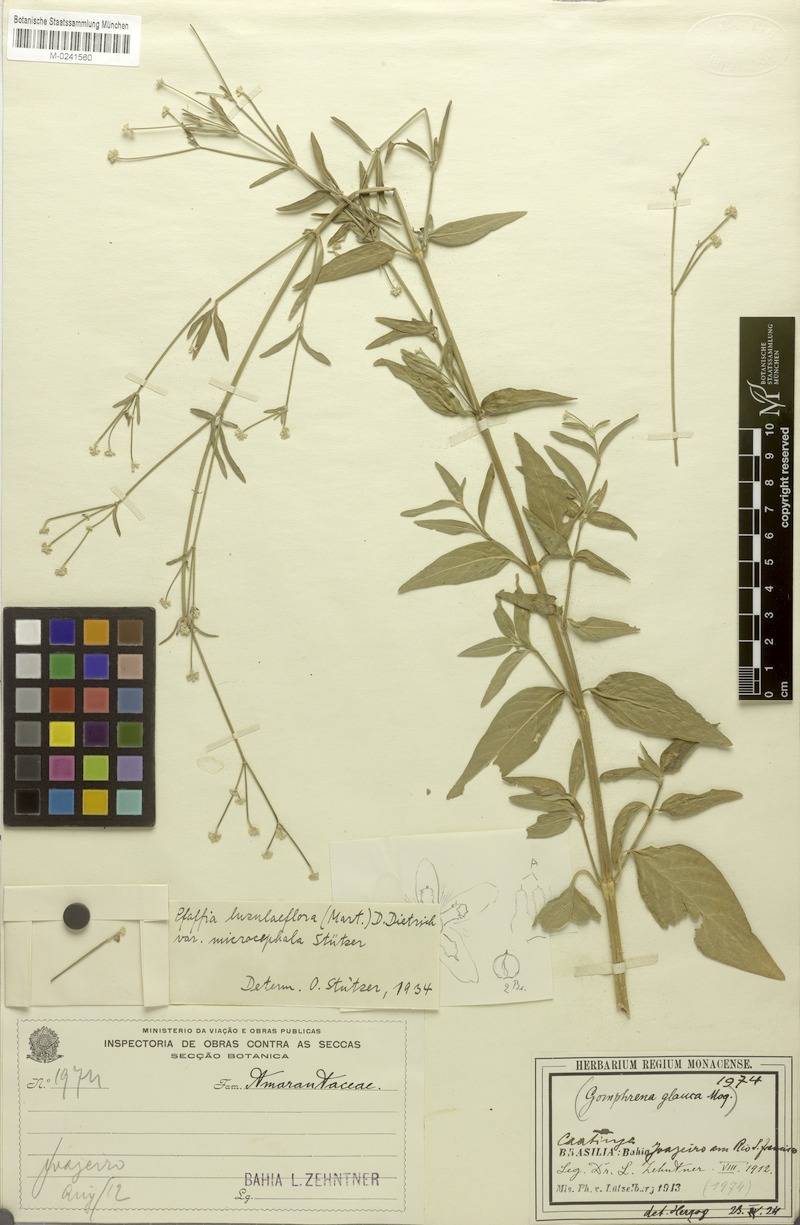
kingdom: Plantae
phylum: Tracheophyta
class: Magnoliopsida
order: Caryophyllales
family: Amaranthaceae
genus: Pfaffia
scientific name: Pfaffia glomerata
